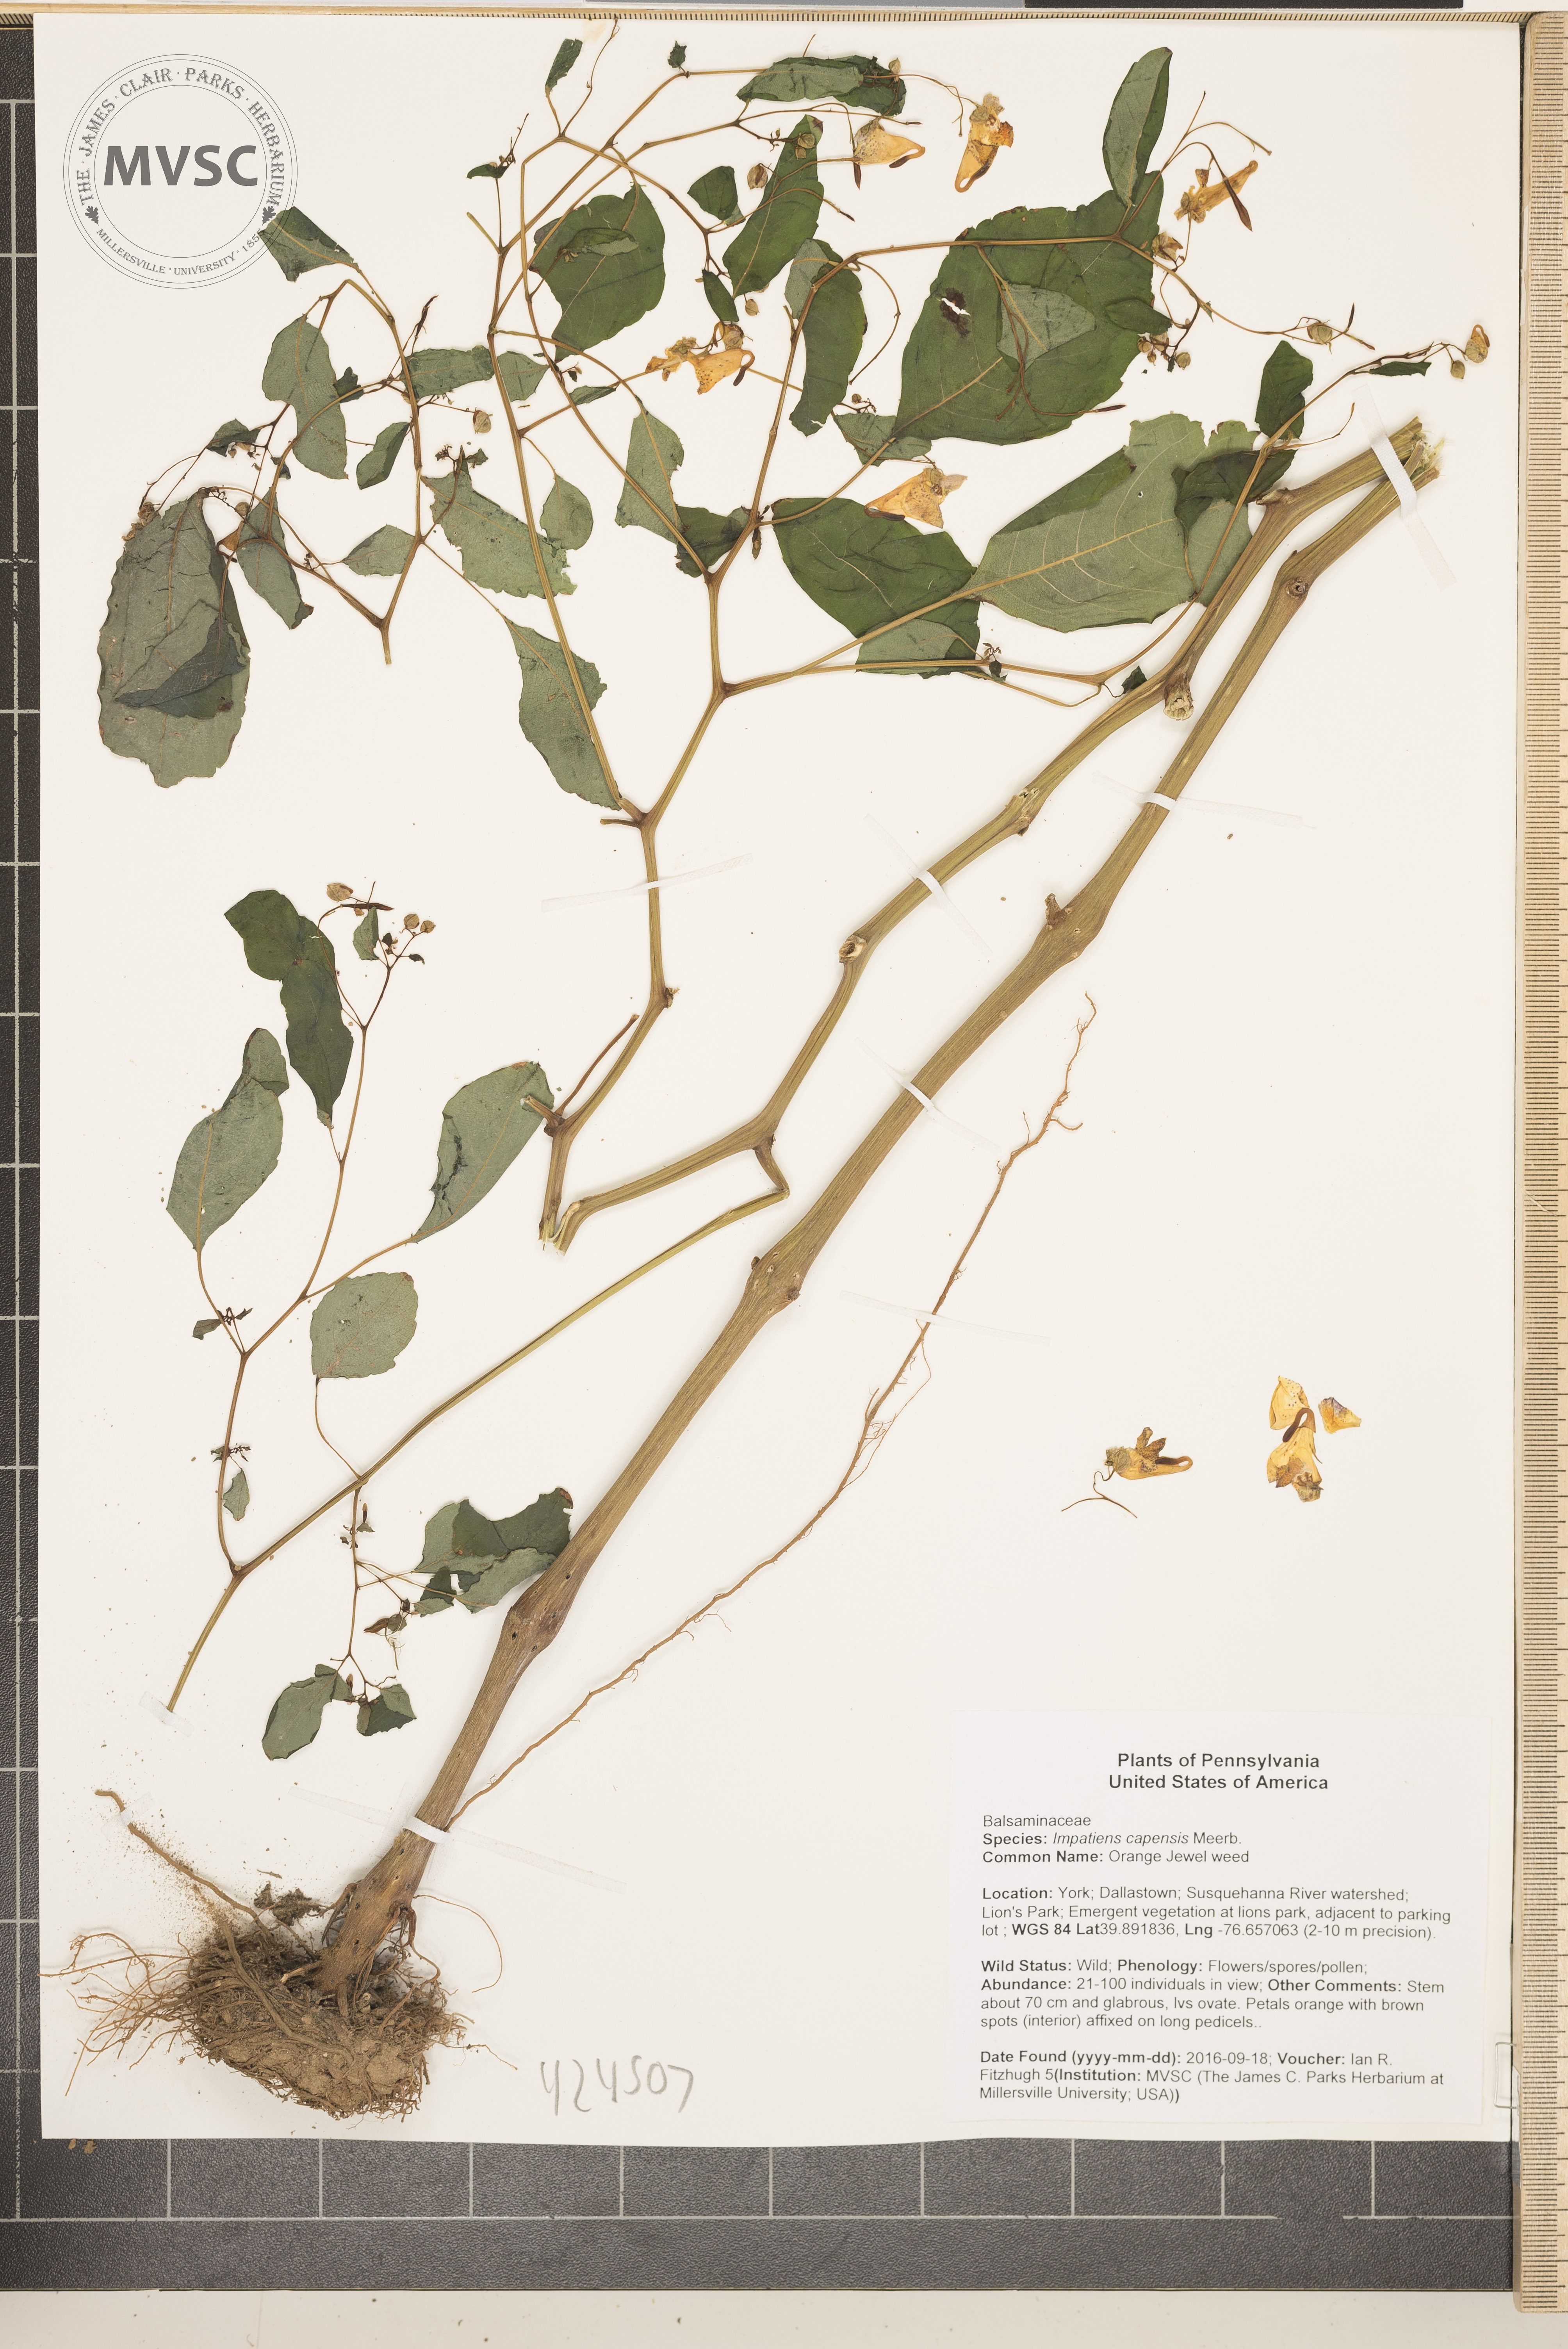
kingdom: Plantae
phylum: Tracheophyta
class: Magnoliopsida
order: Ericales
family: Balsaminaceae
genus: Impatiens
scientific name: Impatiens capensis
